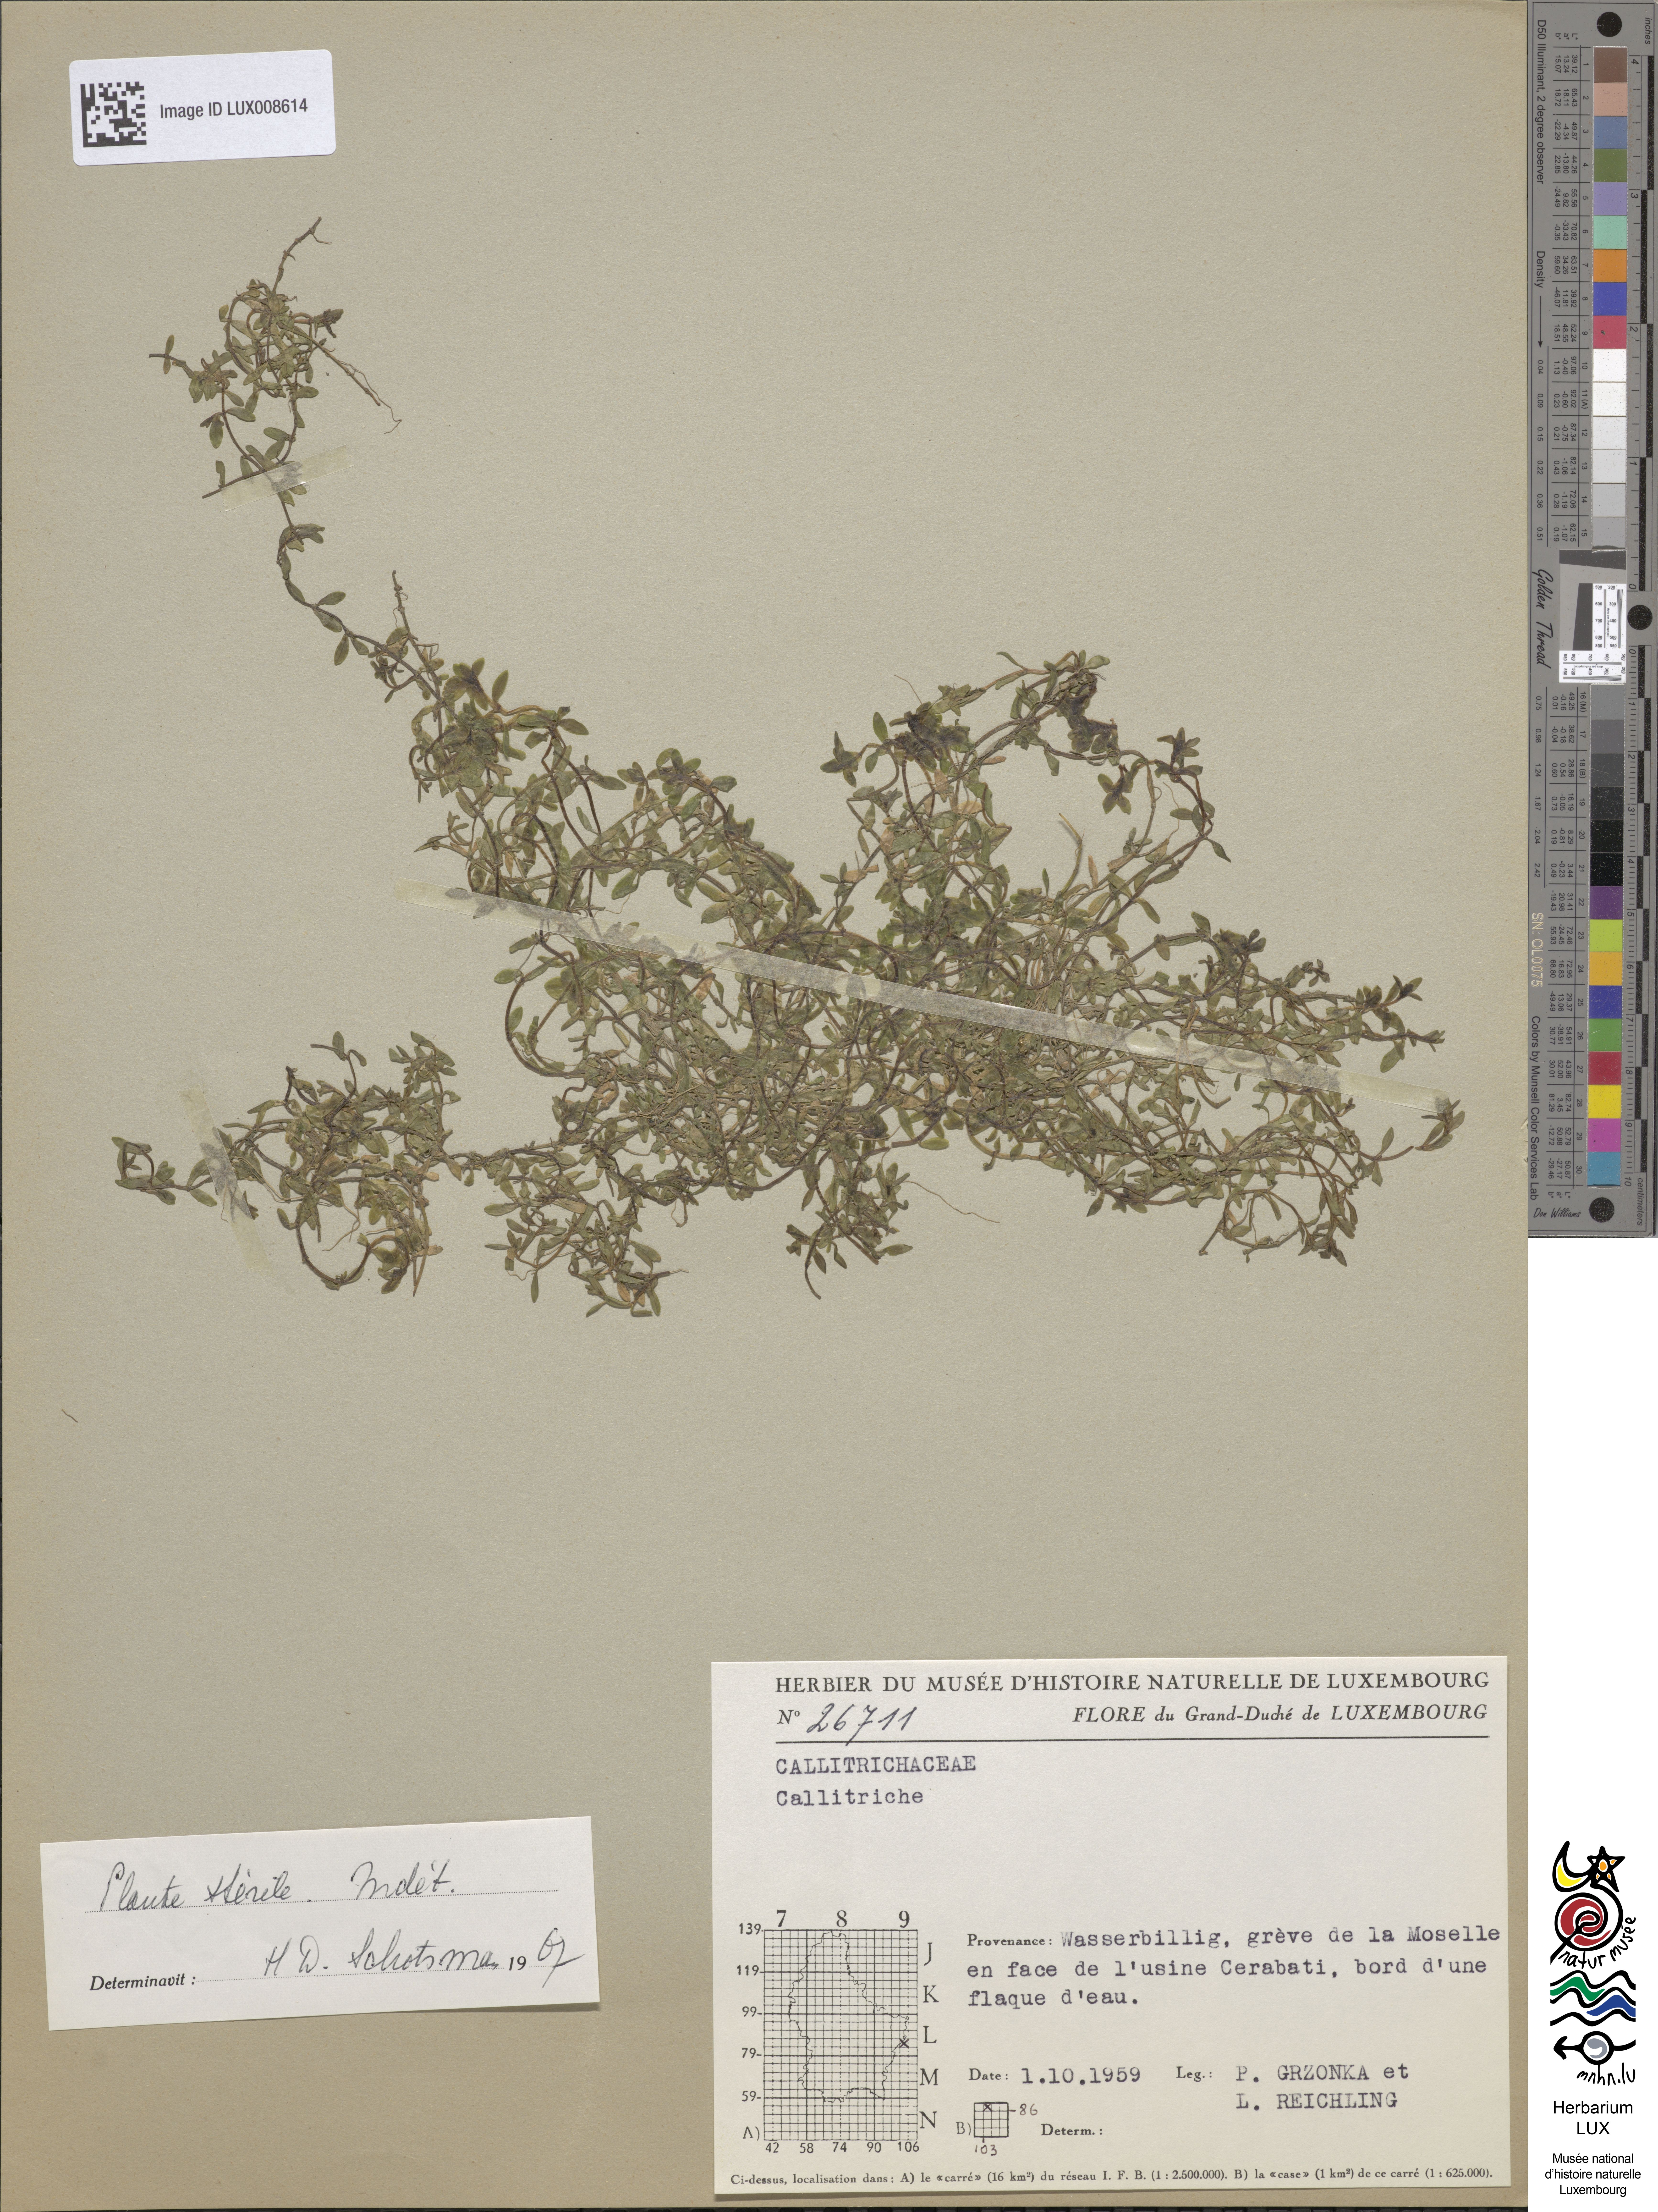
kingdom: Plantae
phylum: Tracheophyta
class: Magnoliopsida
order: Lamiales
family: Plantaginaceae
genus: Callitriche
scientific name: Callitriche
